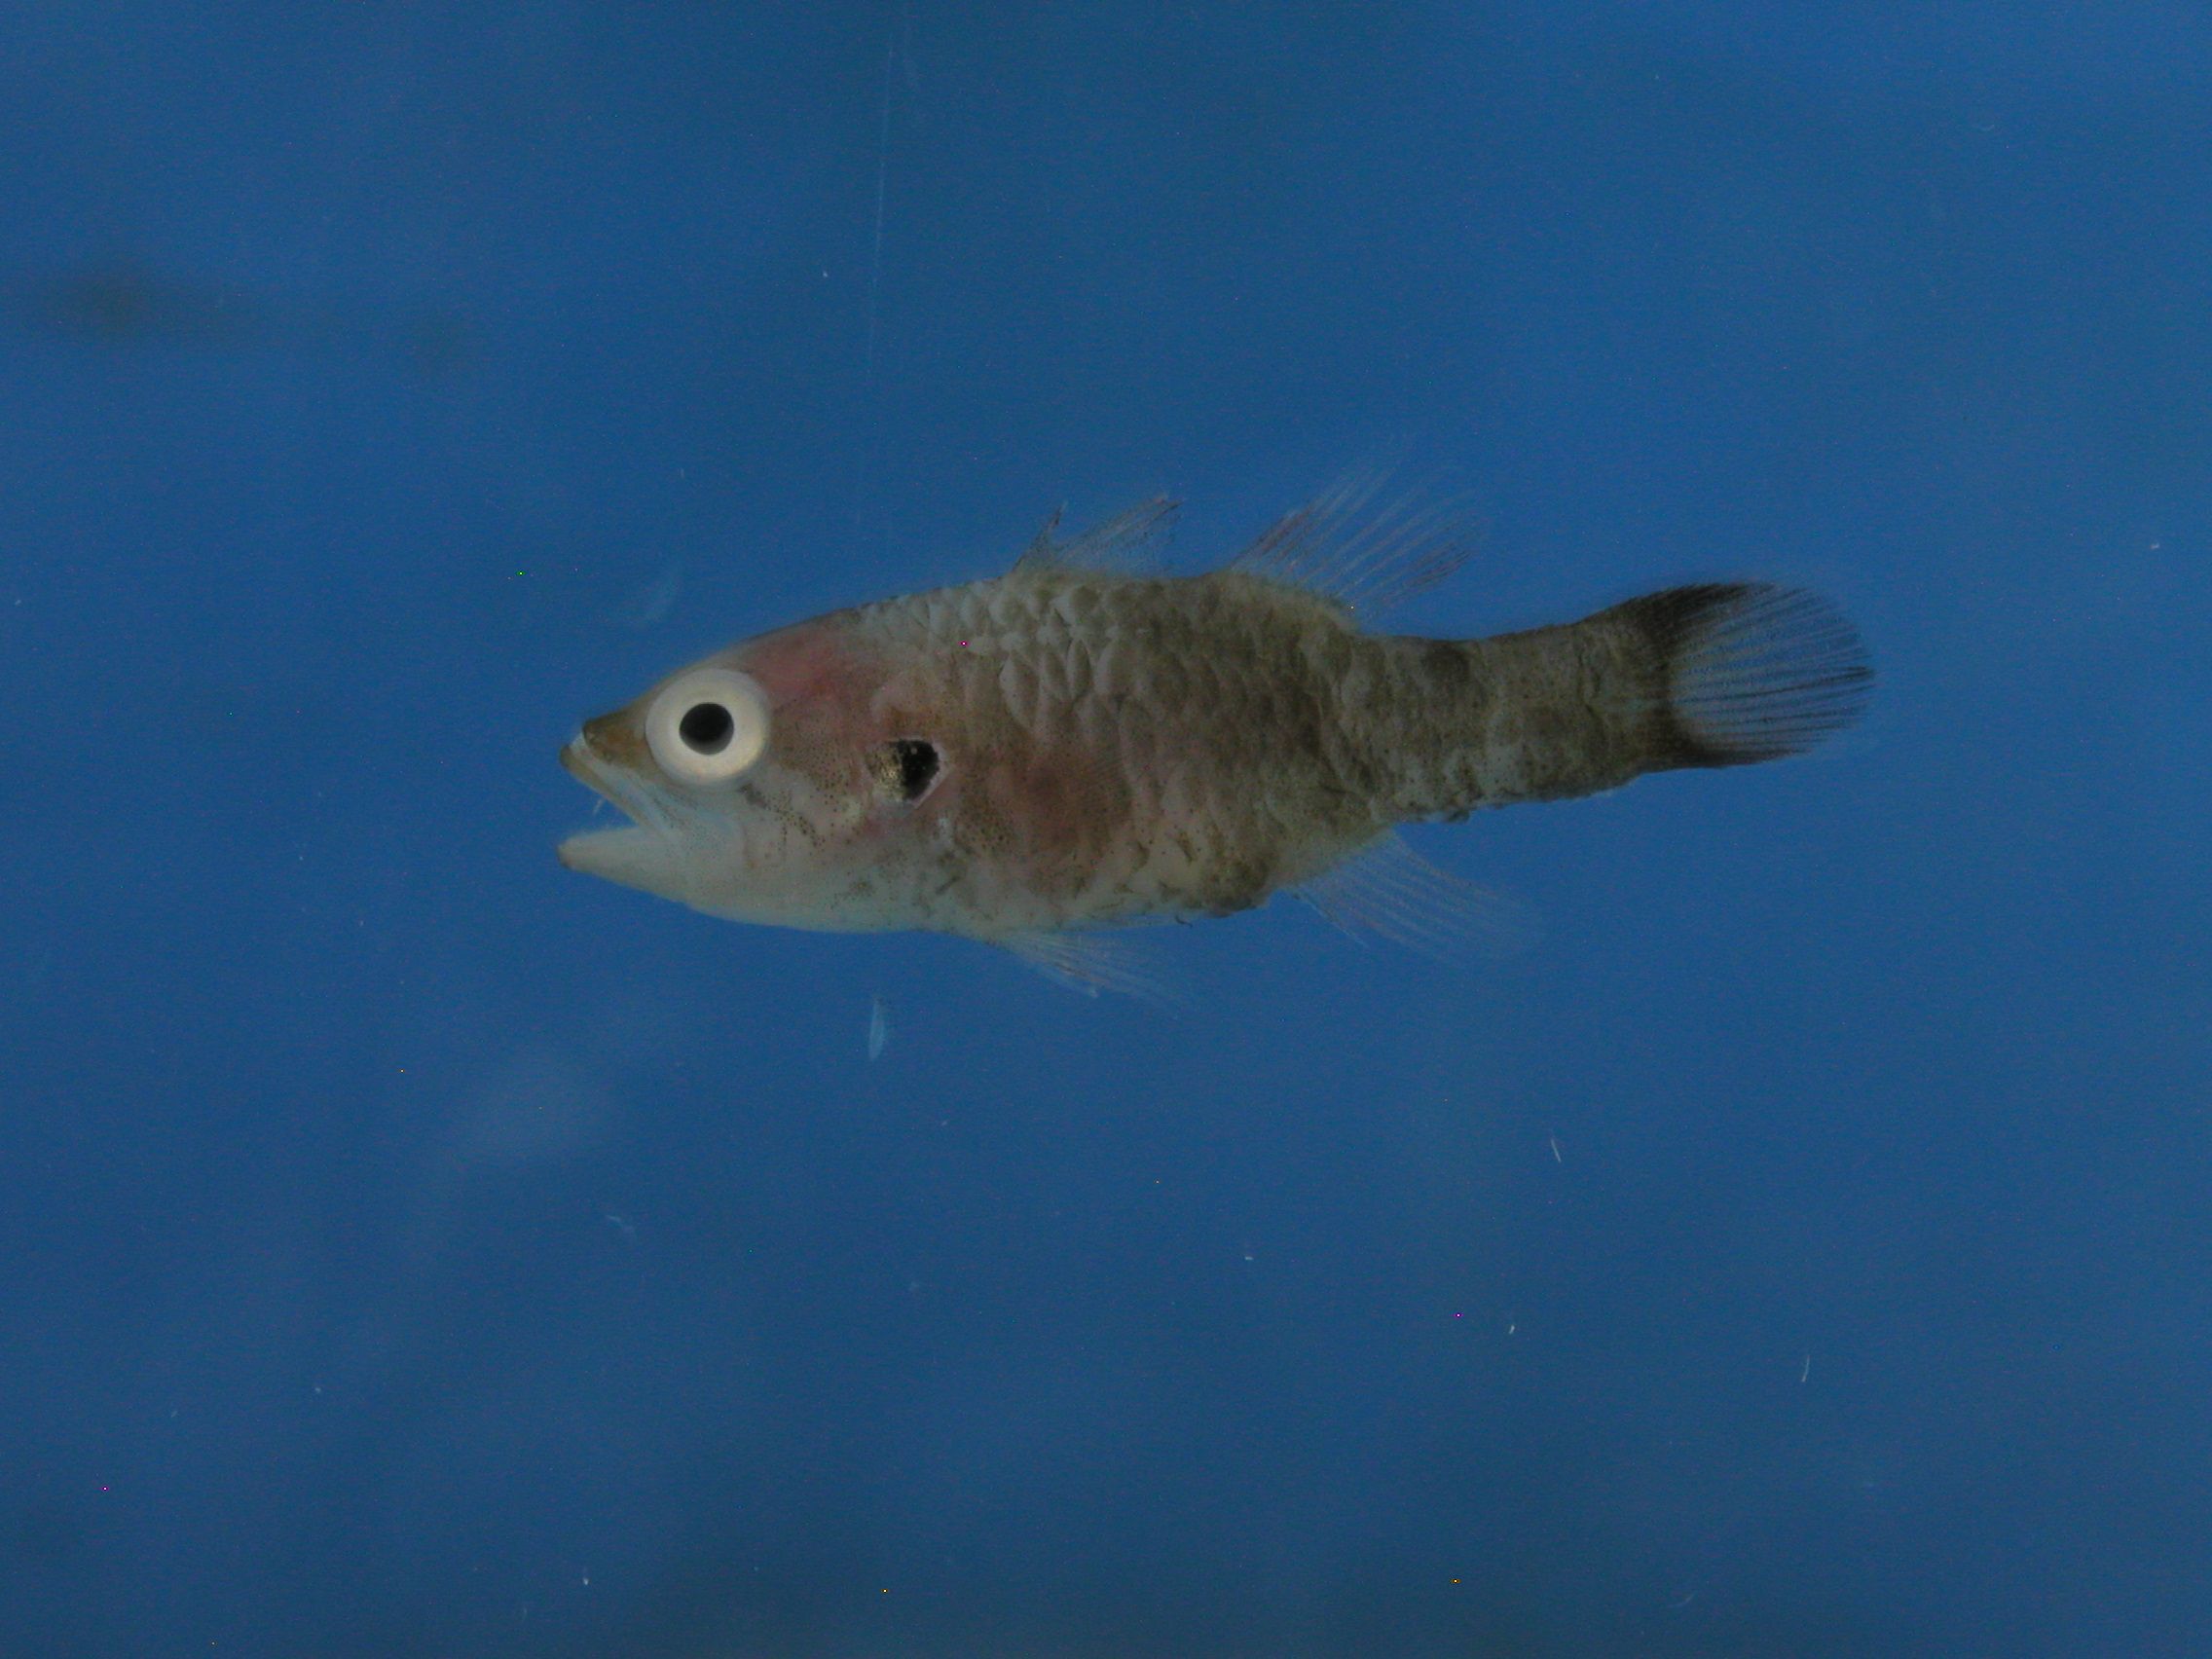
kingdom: Animalia
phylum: Chordata
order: Perciformes
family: Apogonidae
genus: Fowleria
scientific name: Fowleria aurita
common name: Crosseyed cardinalfish
